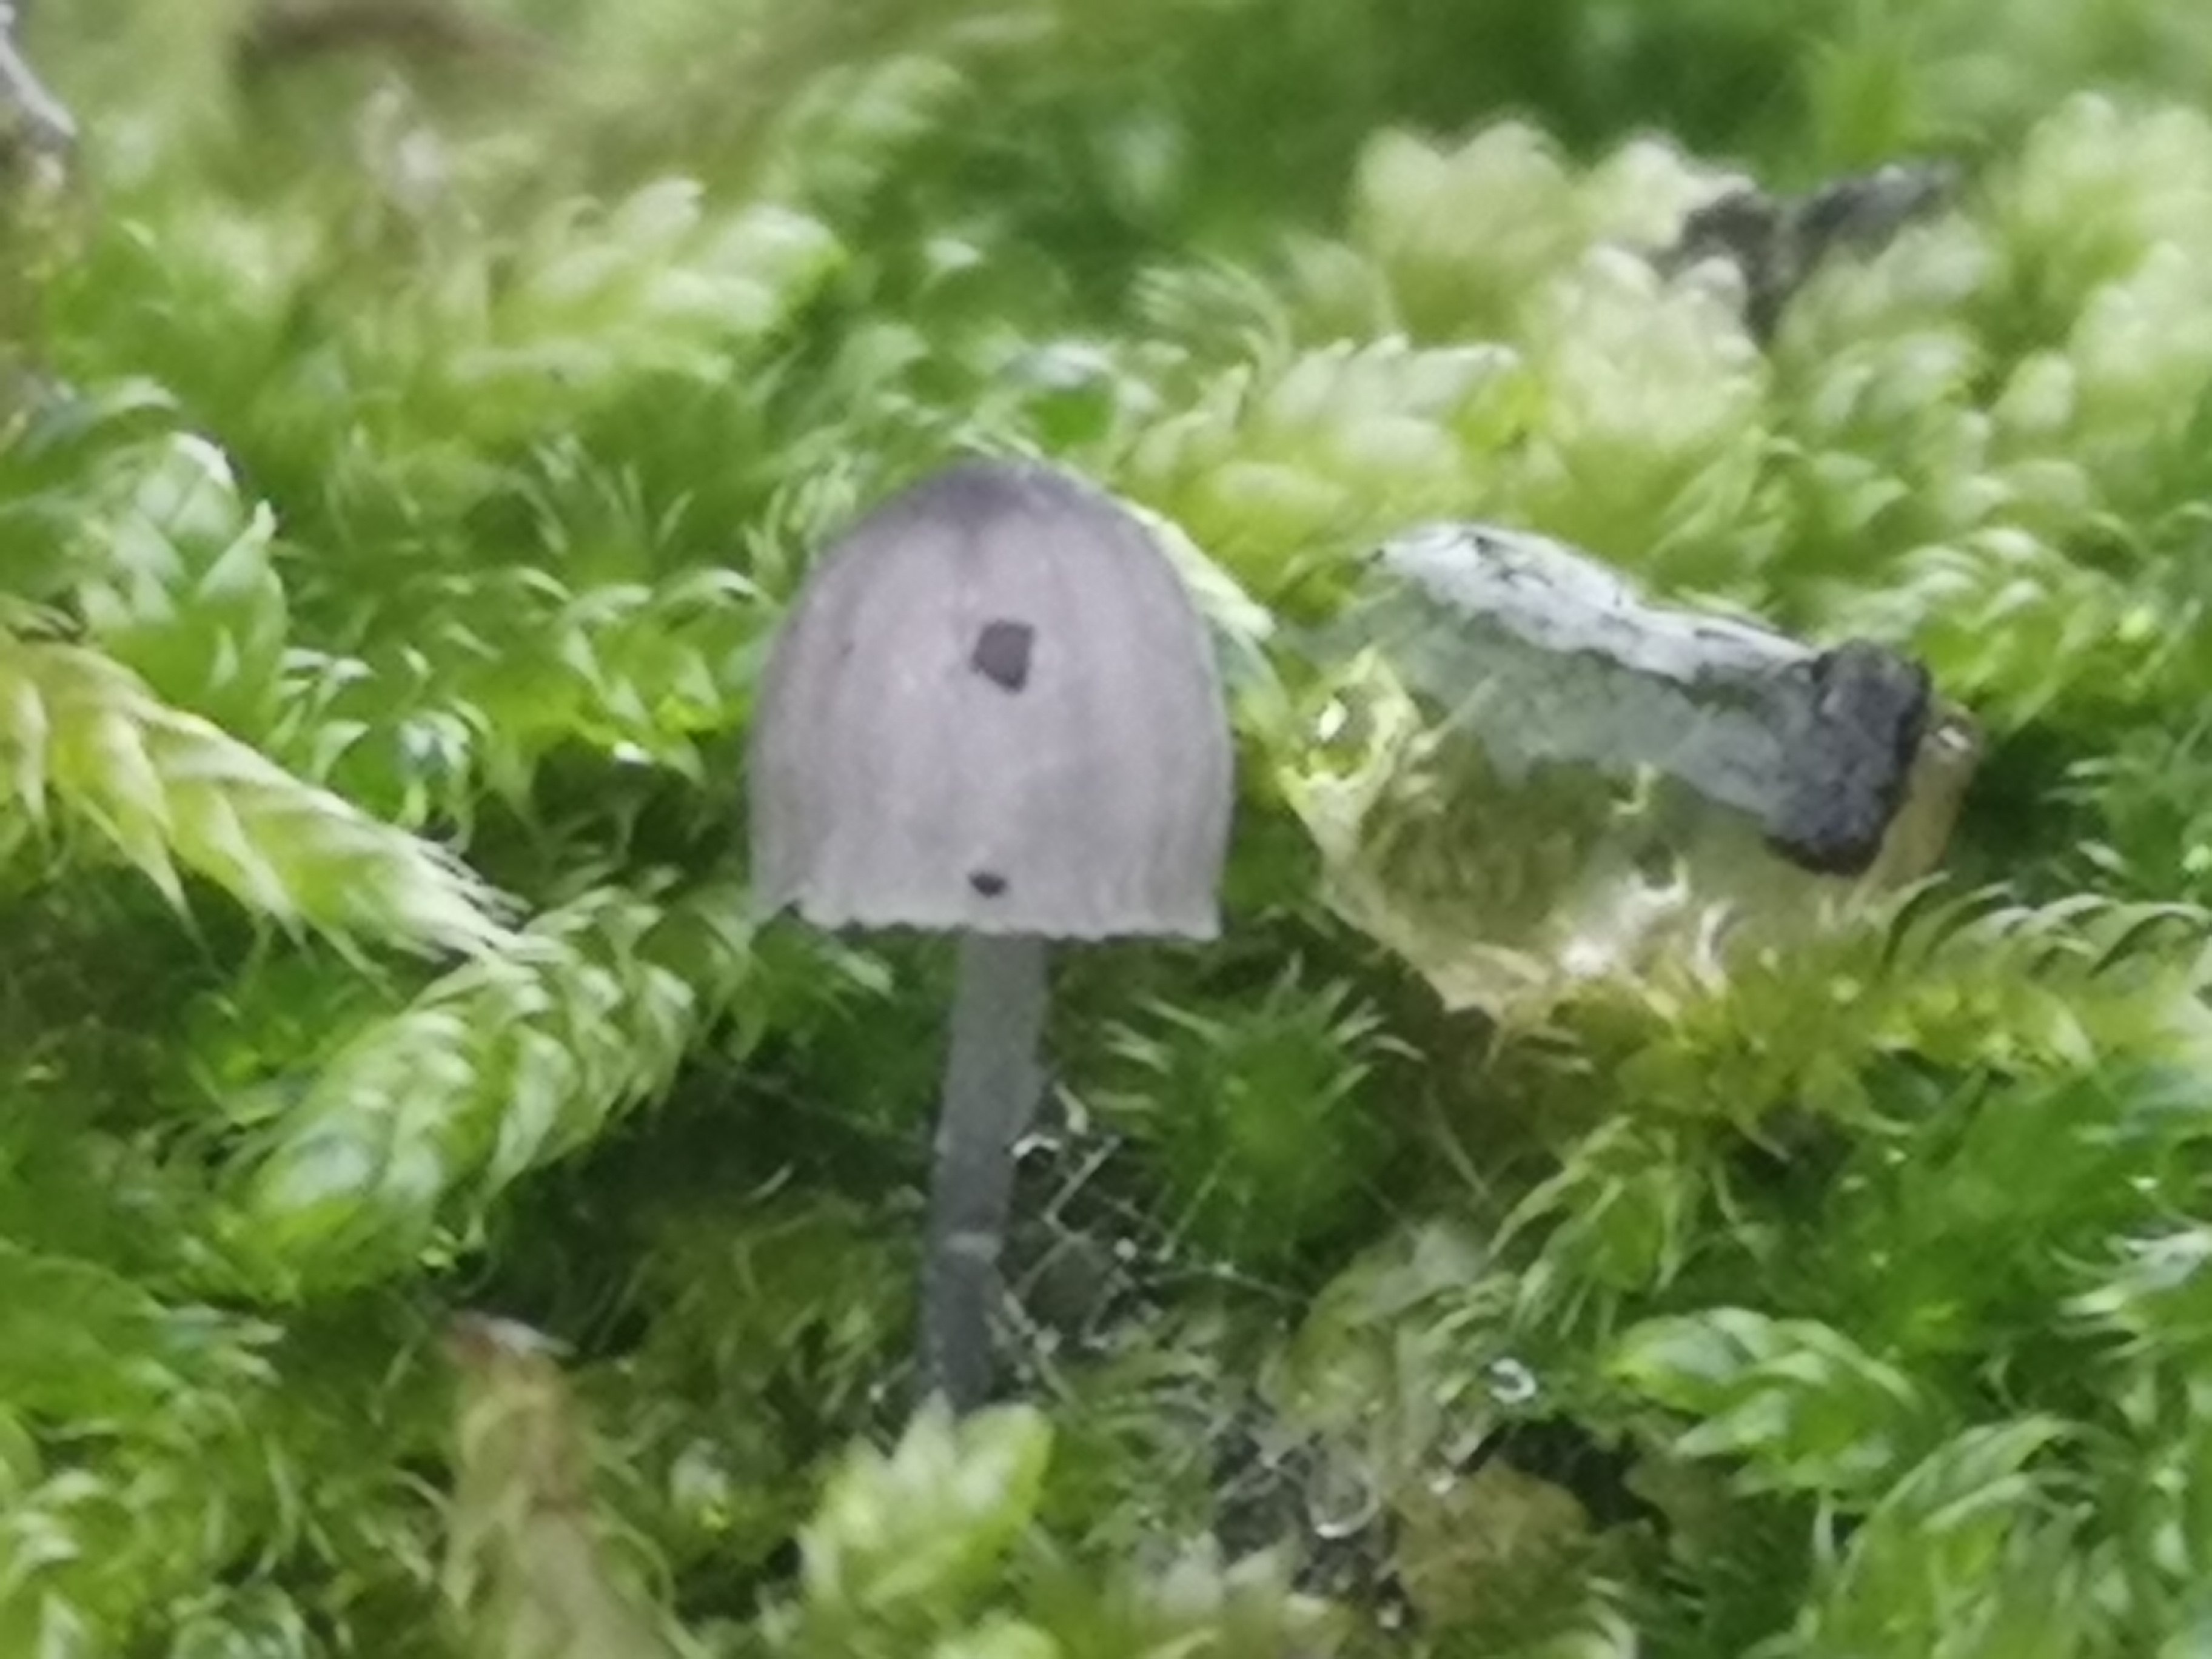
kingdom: Fungi
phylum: Basidiomycota
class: Agaricomycetes
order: Agaricales
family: Mycenaceae
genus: Mycena
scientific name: Mycena pseudocorticola
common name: gråblå bark-huesvamp
